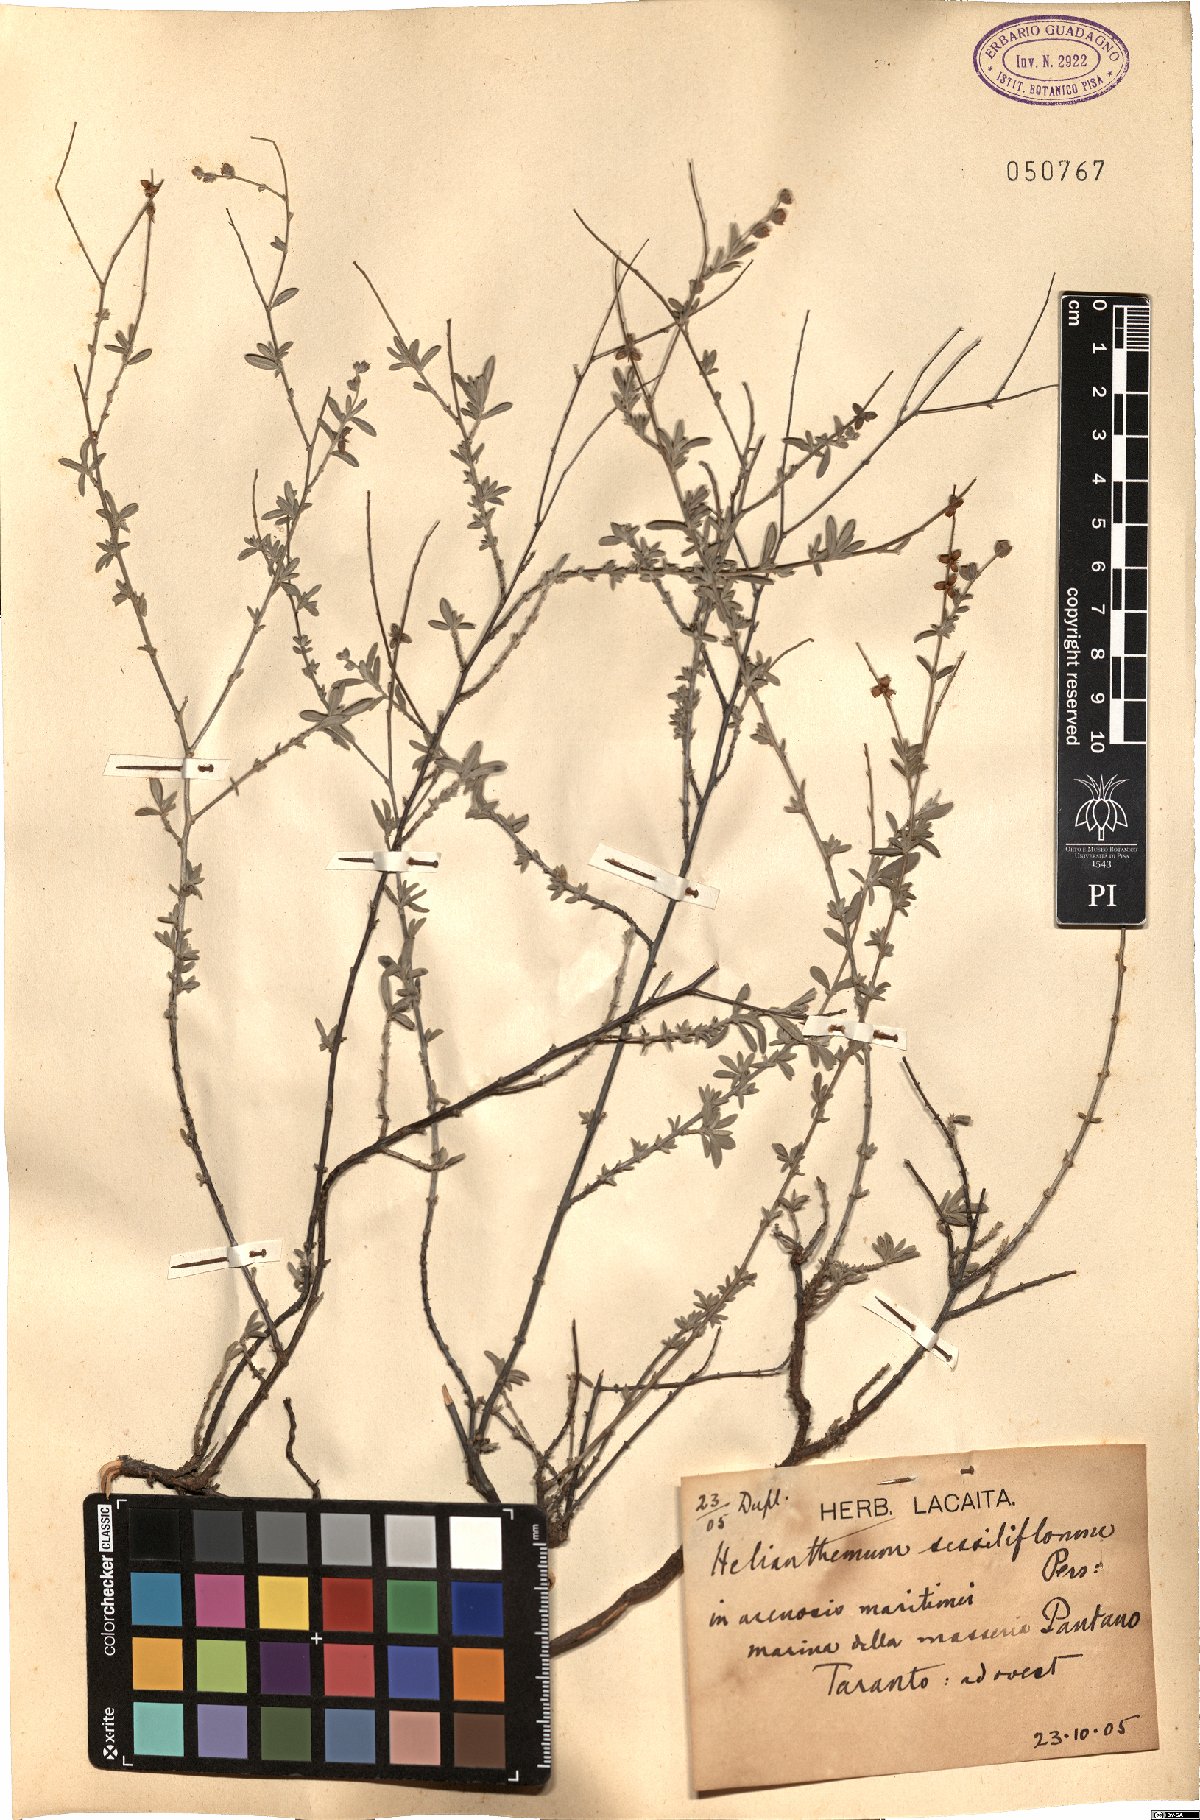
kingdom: Plantae
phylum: Tracheophyta
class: Magnoliopsida
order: Malvales
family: Cistaceae
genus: Helianthemum
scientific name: Helianthemum lippii
